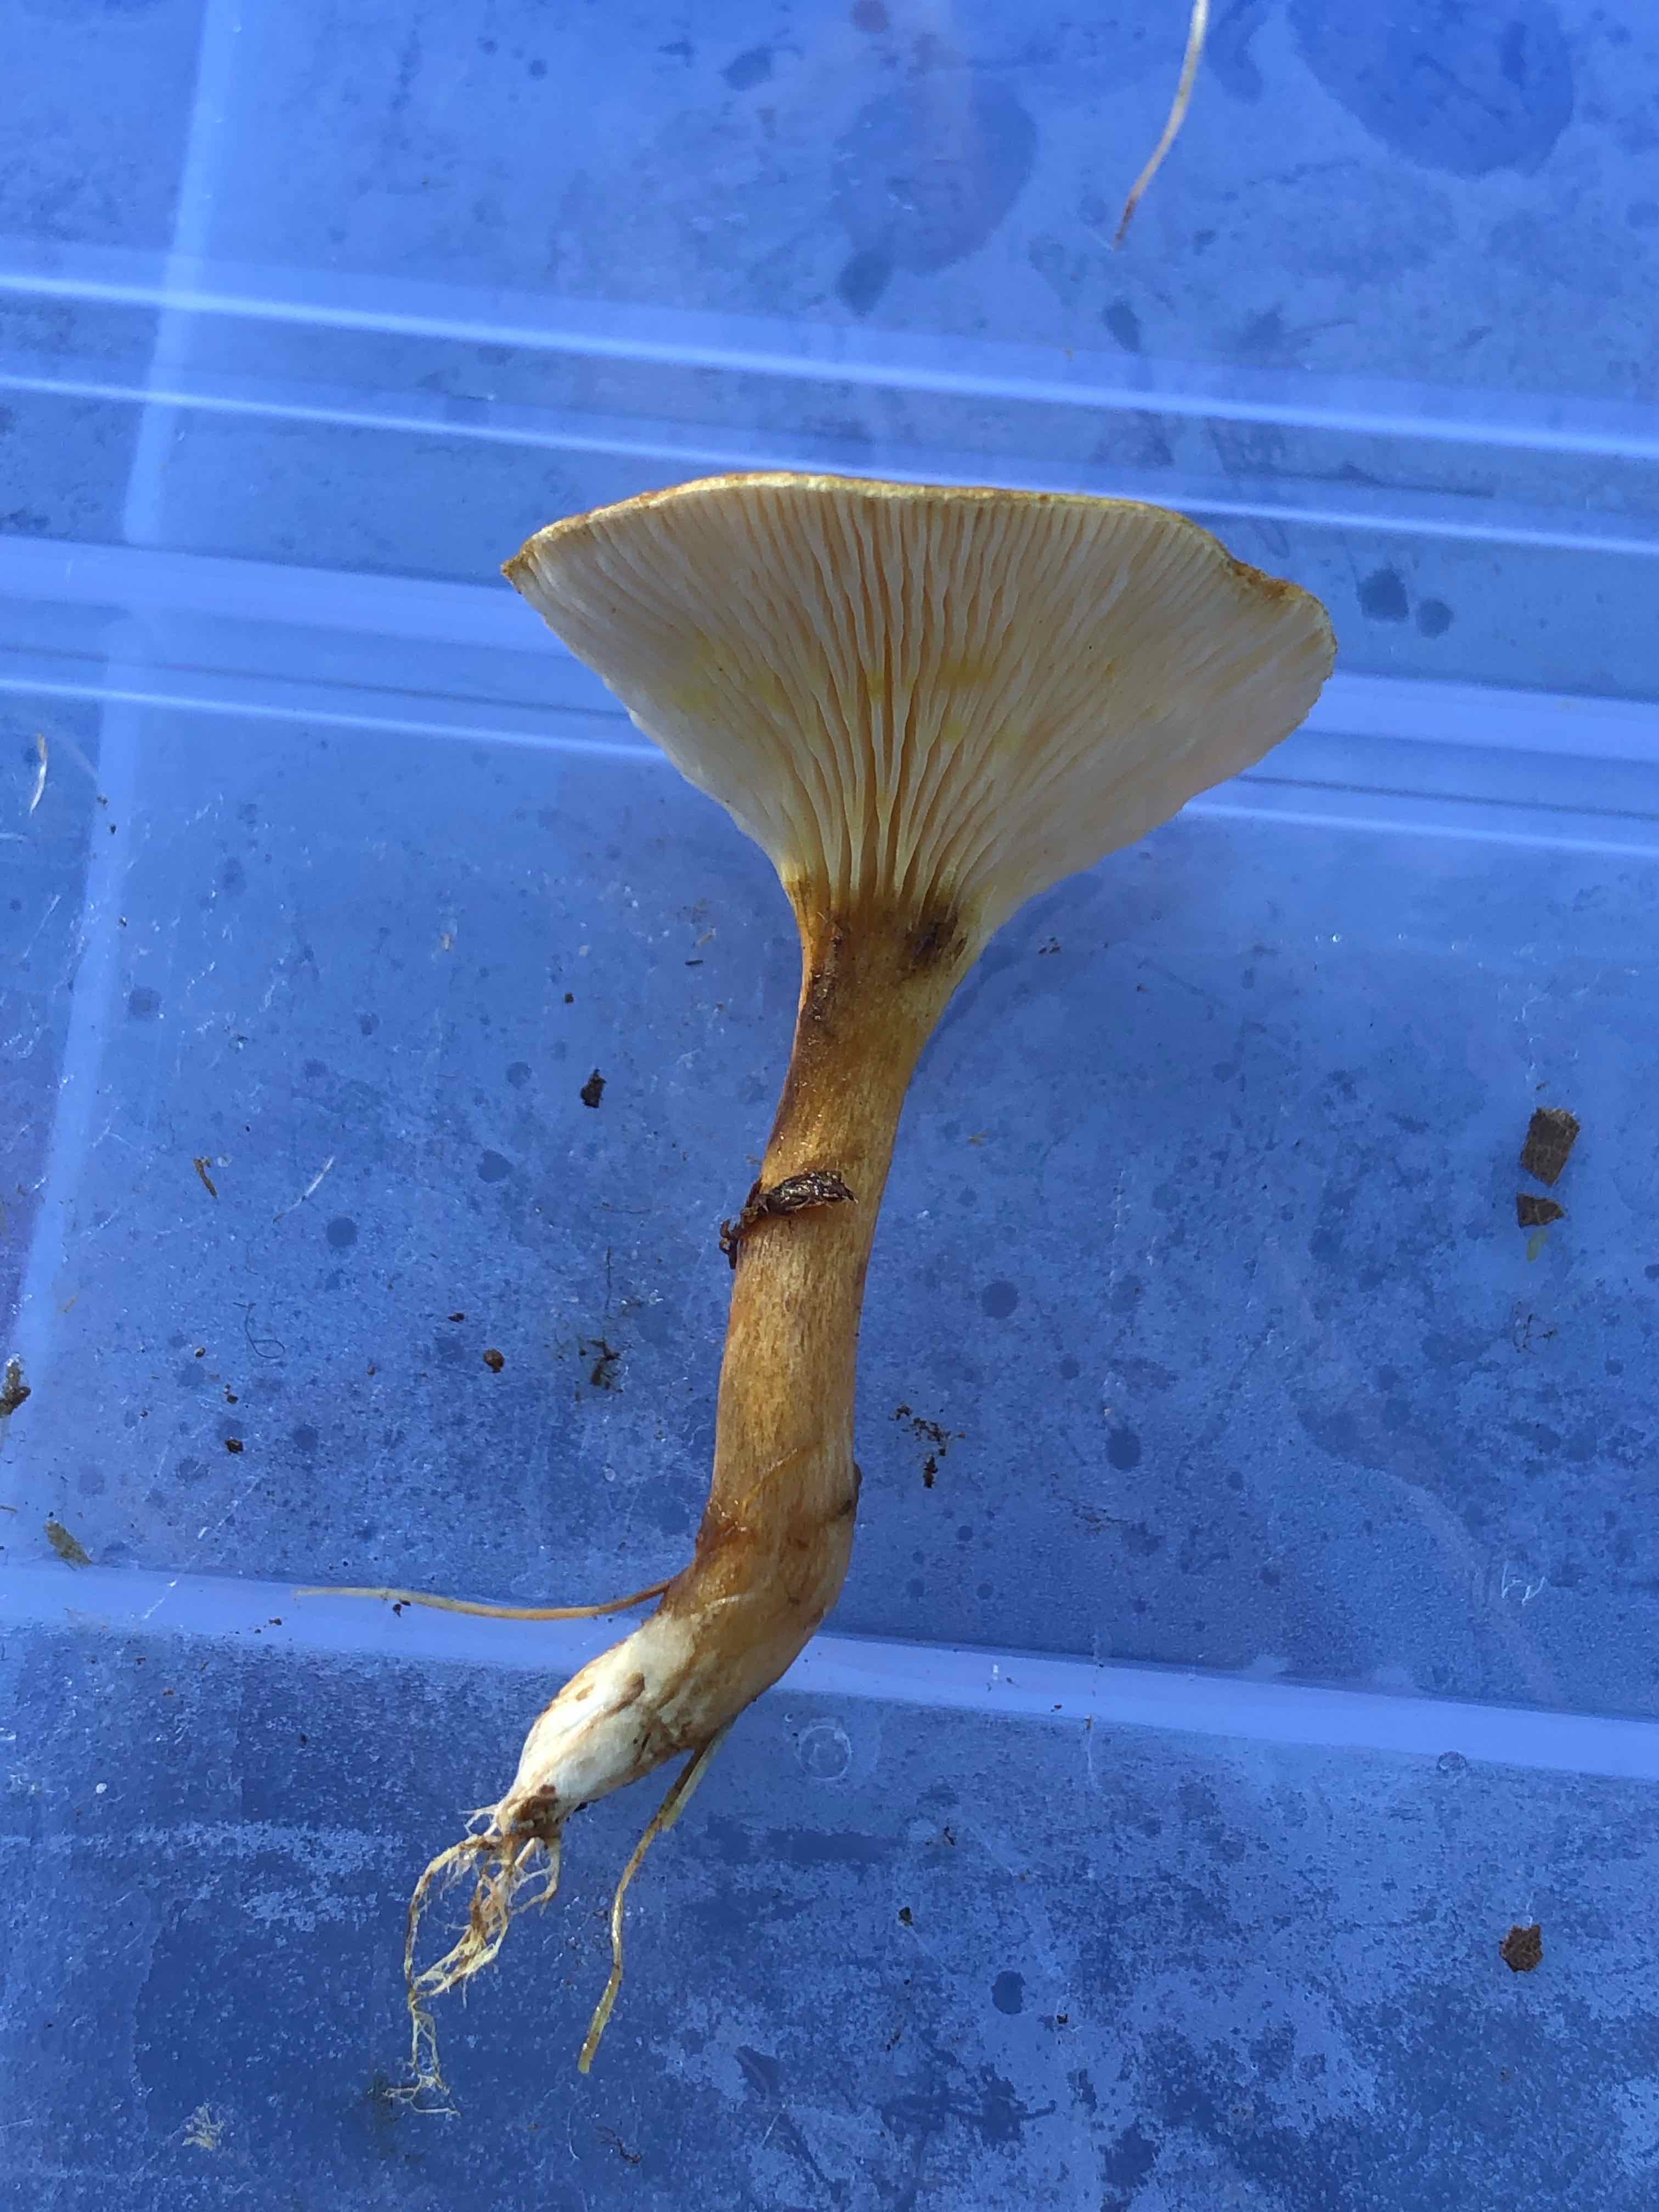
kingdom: Fungi
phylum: Basidiomycota
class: Agaricomycetes
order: Boletales
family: Hygrophoropsidaceae
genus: Hygrophoropsis
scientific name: Hygrophoropsis
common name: orangekantarel
